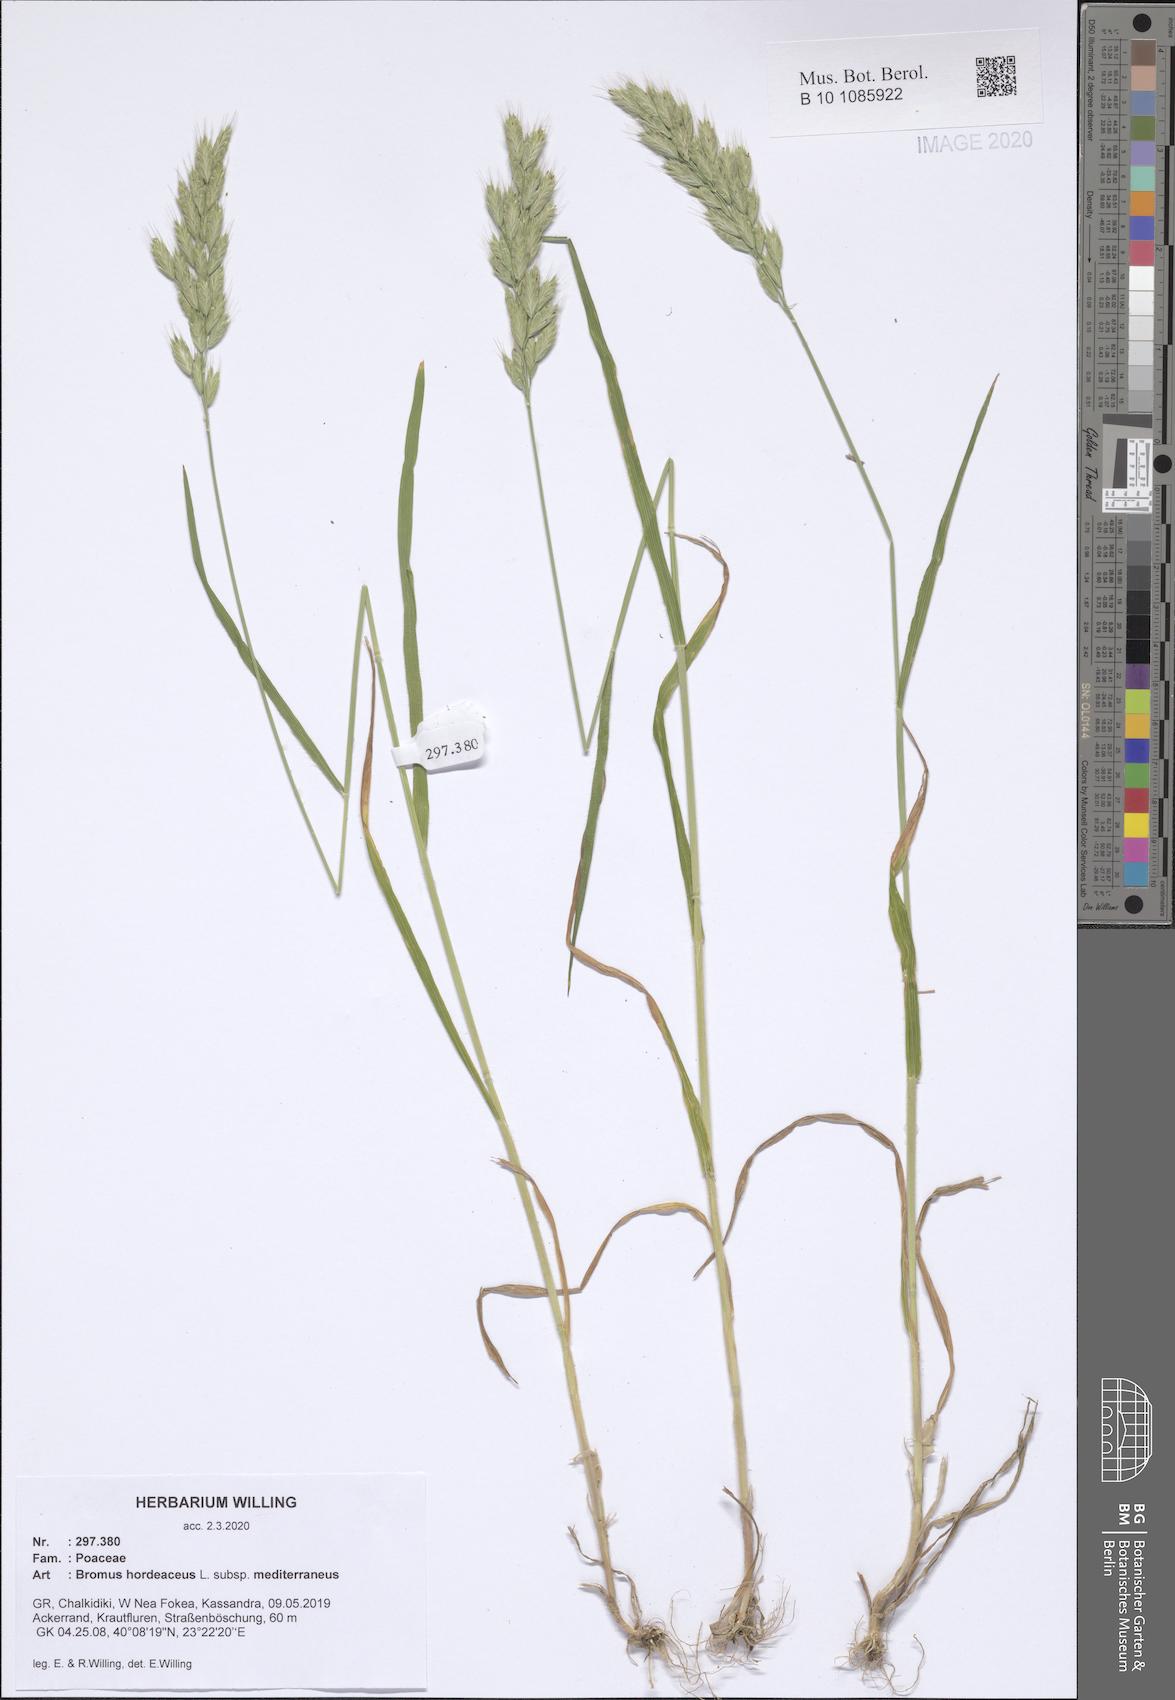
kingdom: Plantae
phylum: Tracheophyta
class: Liliopsida
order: Poales
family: Poaceae
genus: Bromus
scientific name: Bromus hordeaceus
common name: Soft brome
